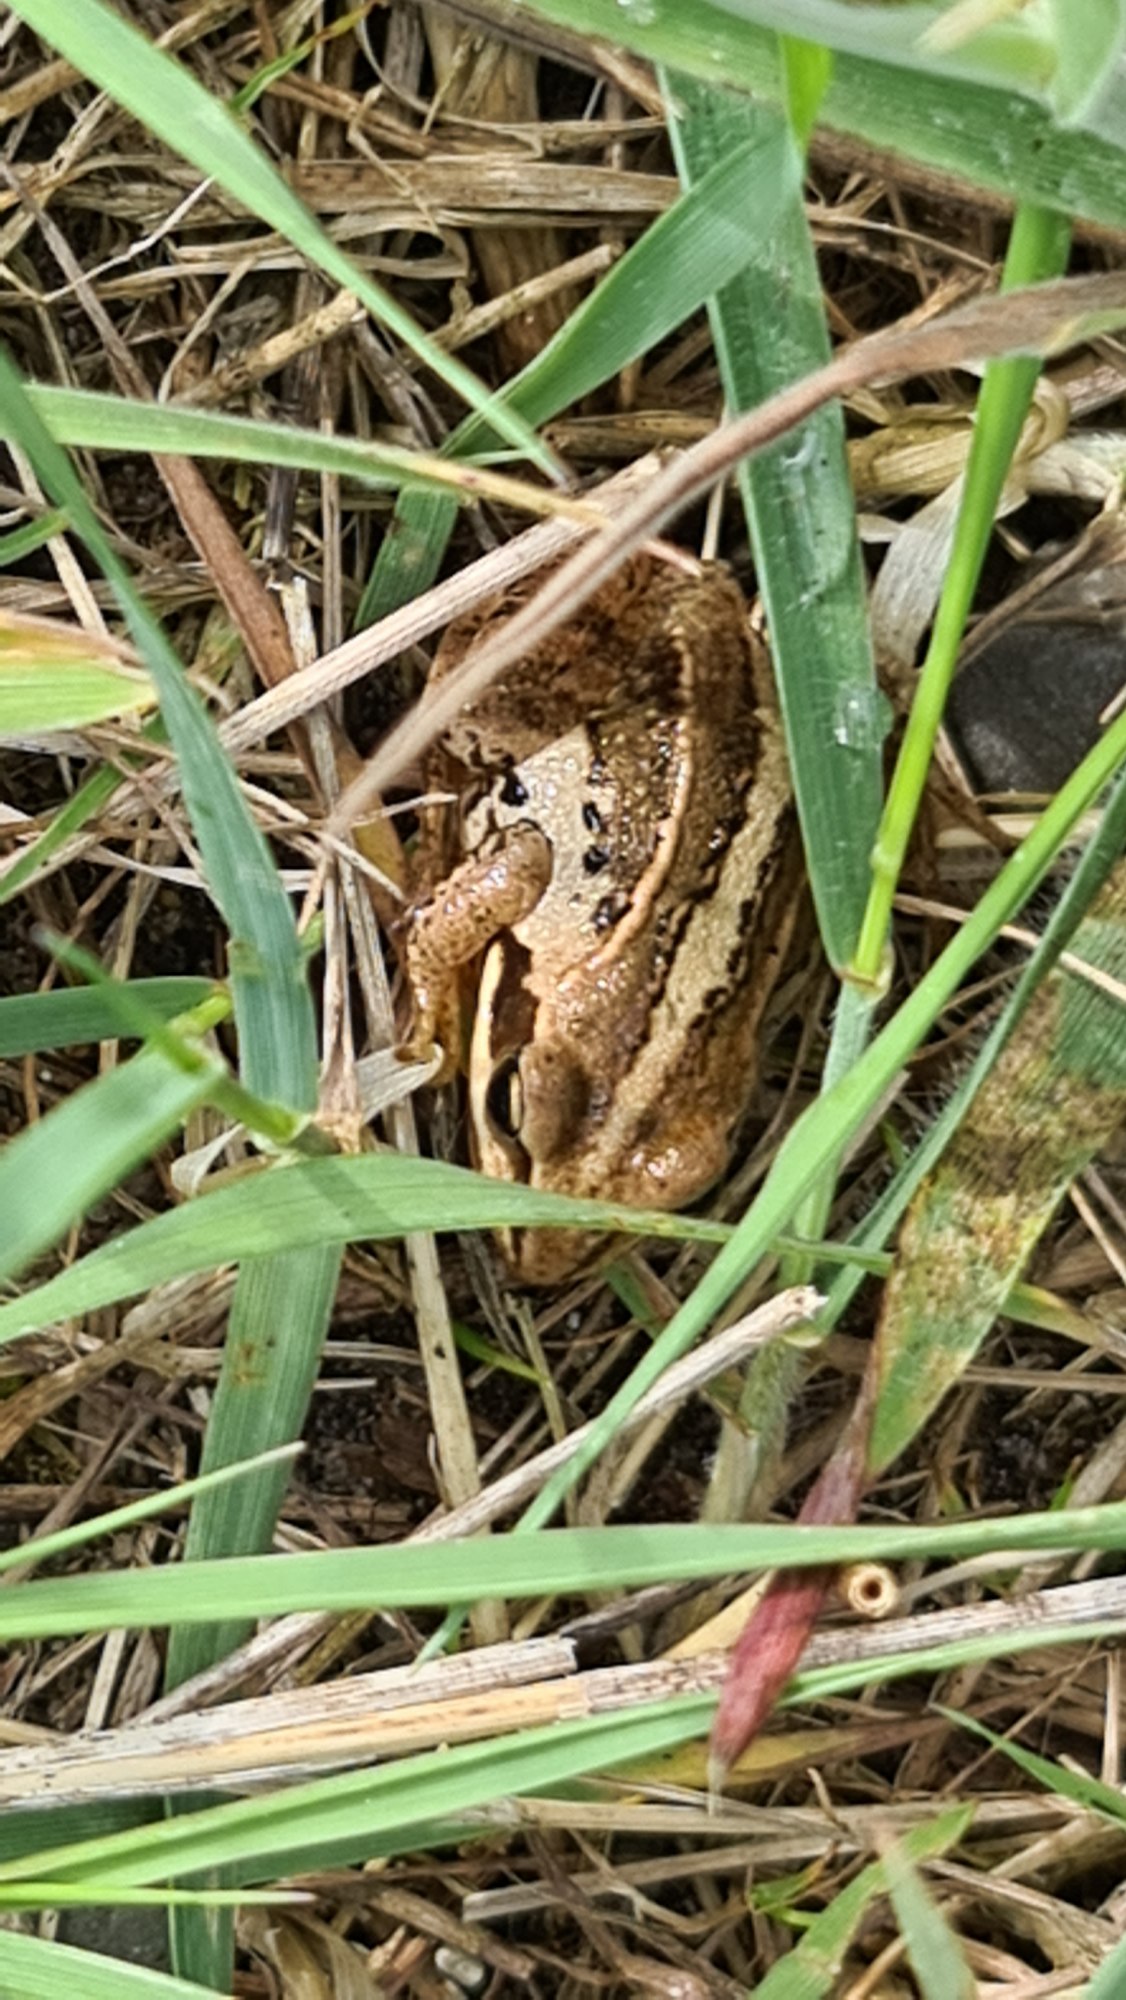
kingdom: Animalia
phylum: Chordata
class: Amphibia
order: Anura
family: Ranidae
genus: Rana
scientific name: Rana arvalis
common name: Spidssnudet frø
